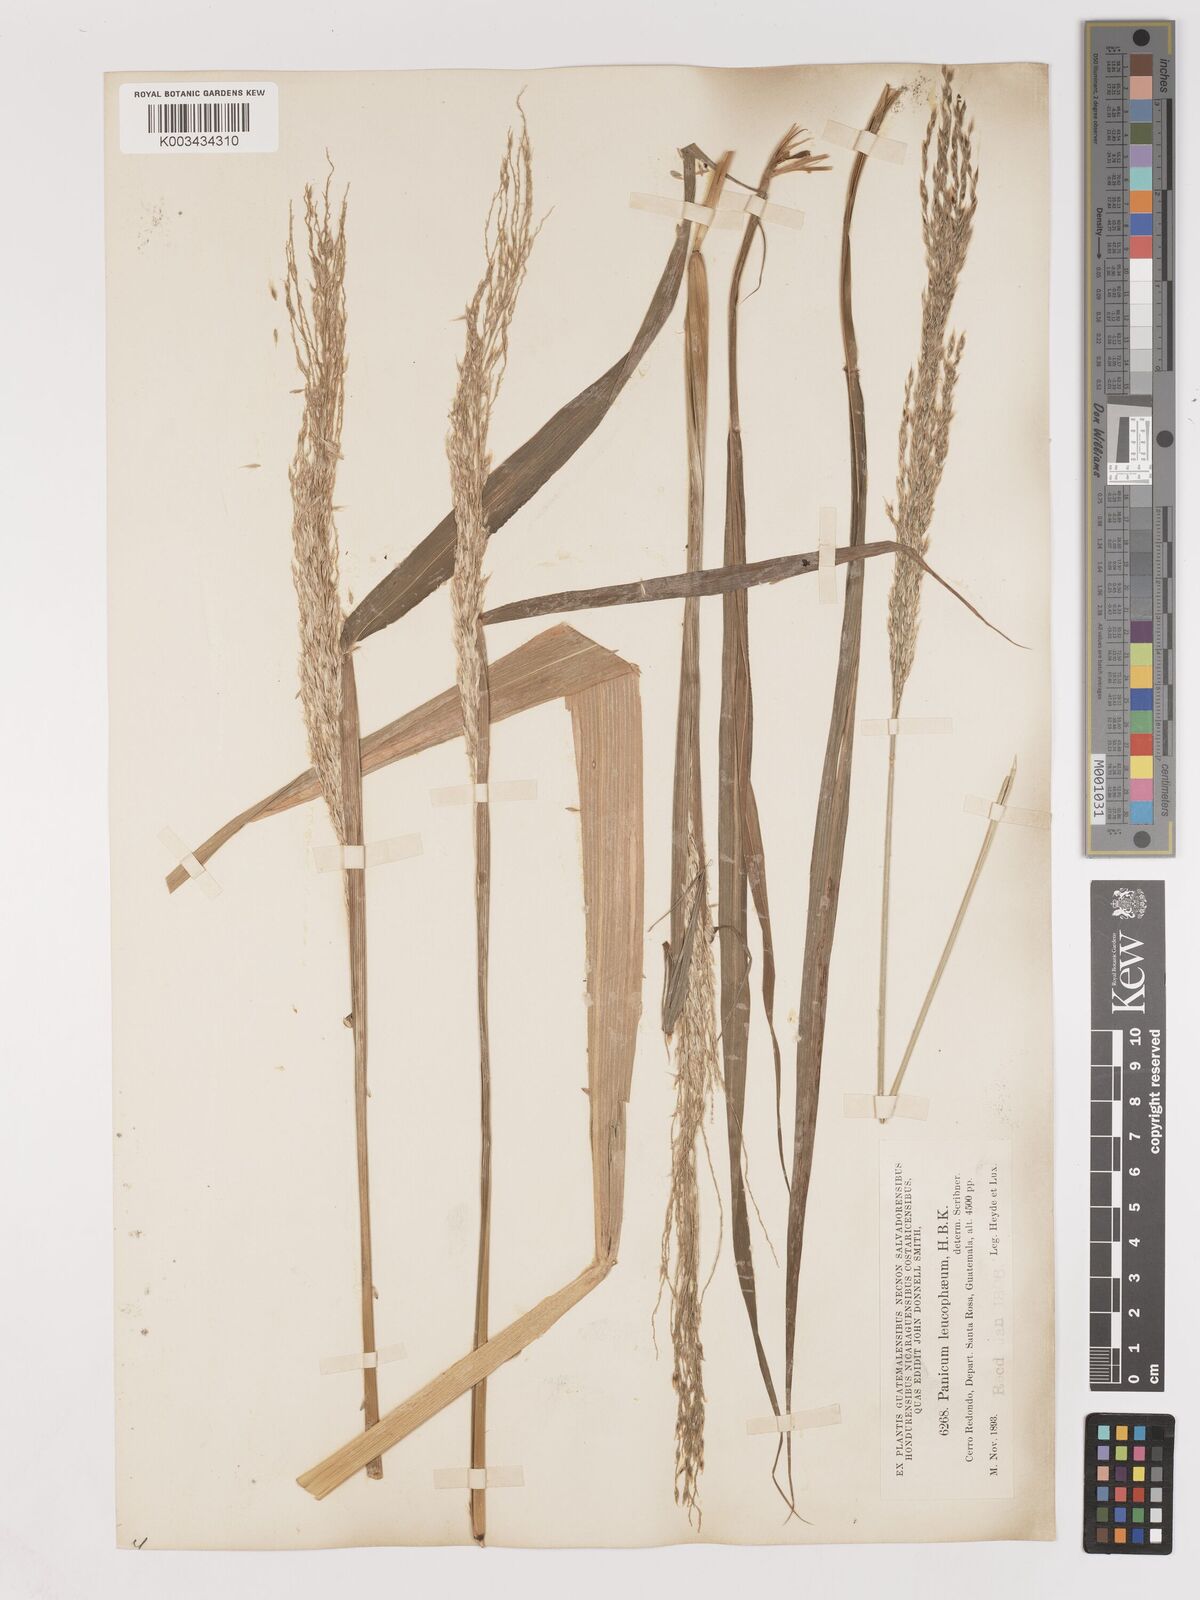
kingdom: Plantae
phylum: Tracheophyta
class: Liliopsida
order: Poales
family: Poaceae
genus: Digitaria
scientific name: Digitaria insularis
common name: Sourgrass
